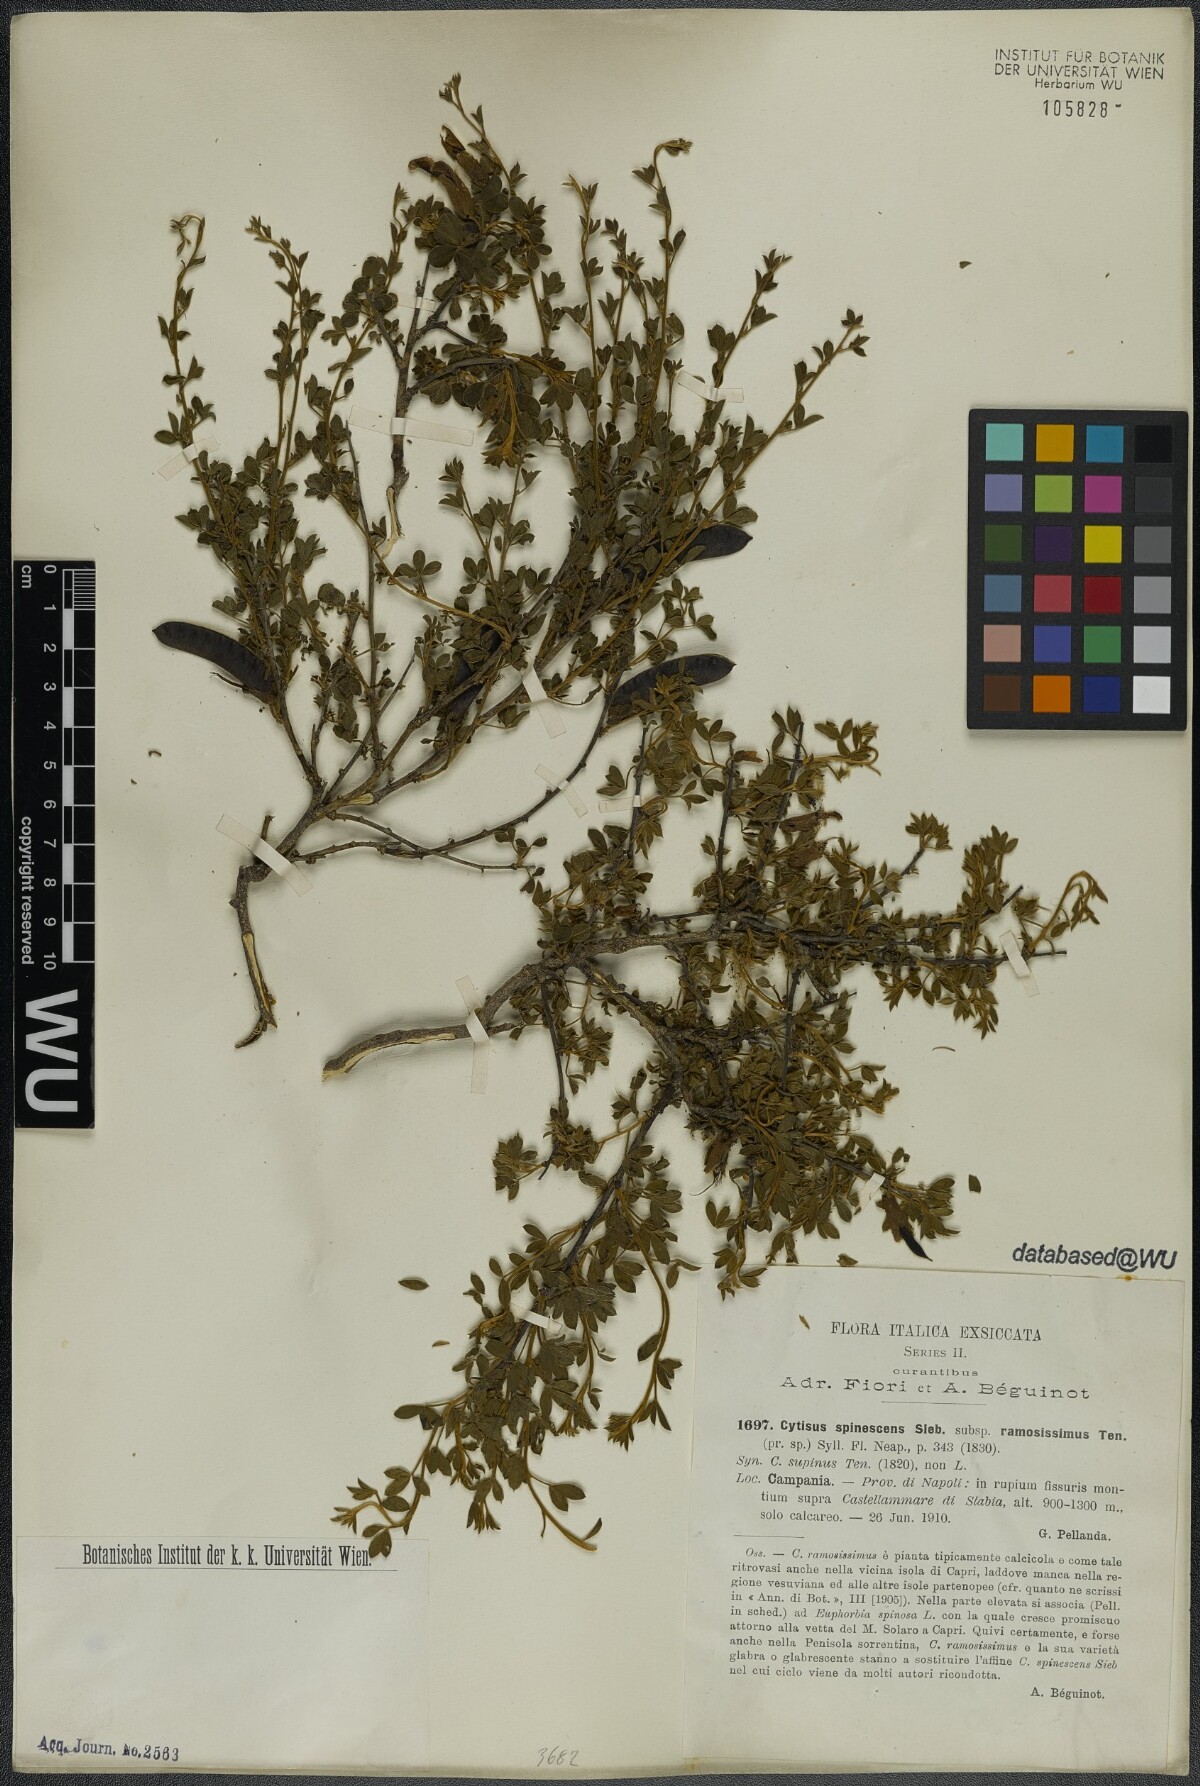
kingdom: Plantae
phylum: Tracheophyta
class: Magnoliopsida
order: Fabales
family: Fabaceae
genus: Chamaecytisus
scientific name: Chamaecytisus spinescens
